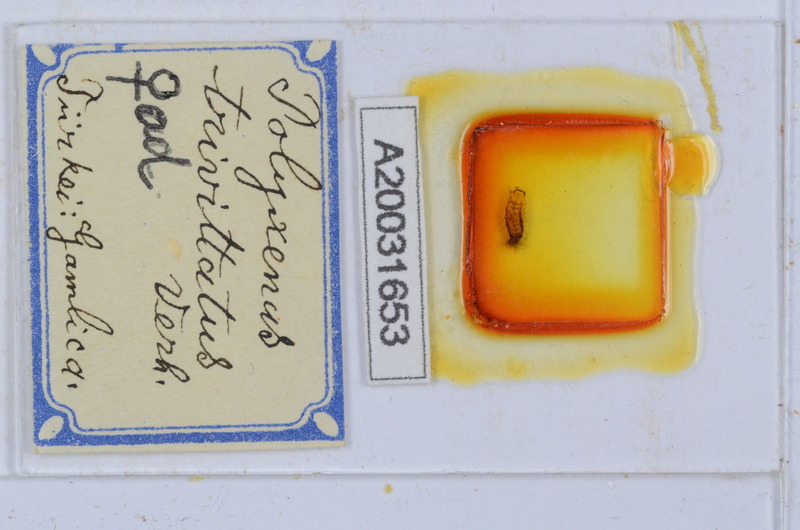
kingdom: Animalia
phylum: Arthropoda
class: Diplopoda
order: Polyxenida
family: Polyxenidae
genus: Propolyxenus
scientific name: Propolyxenus argentifer
